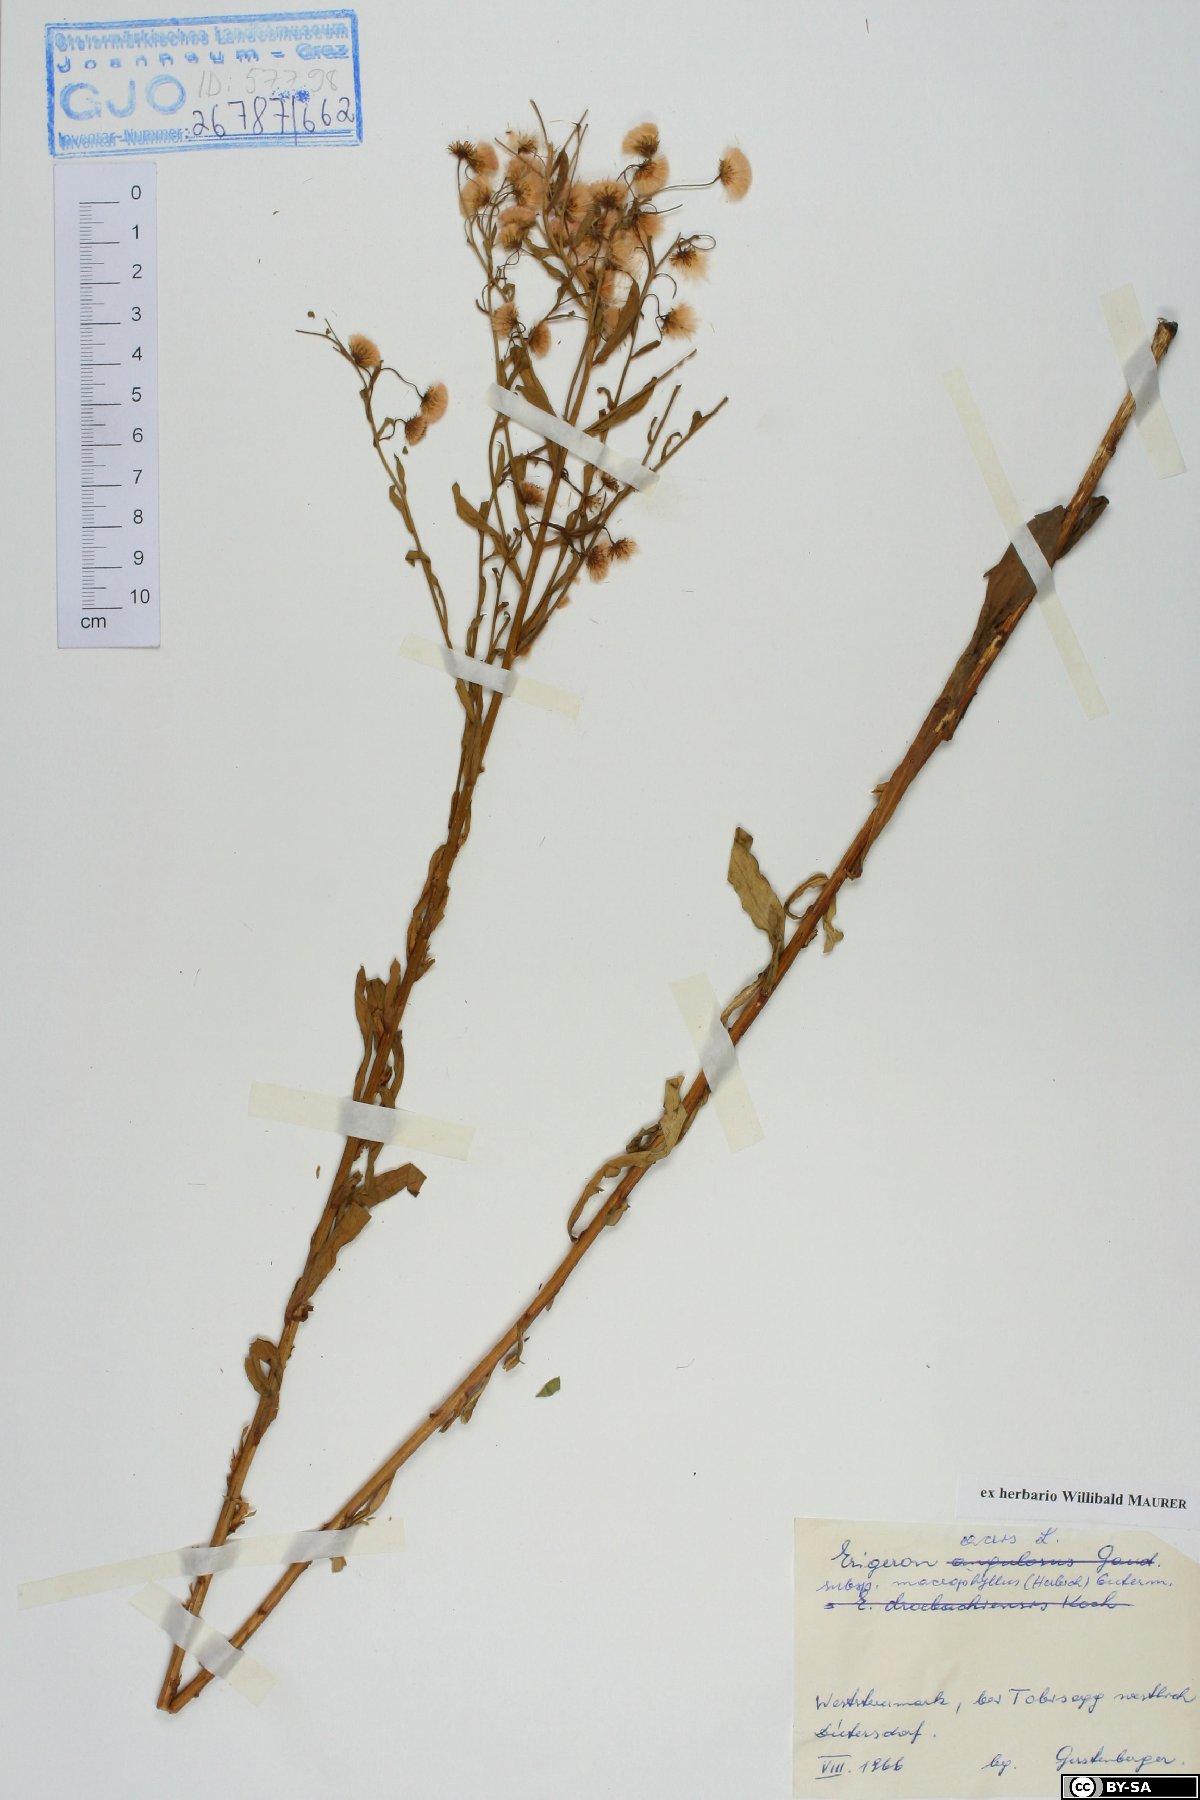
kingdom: Plantae
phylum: Tracheophyta
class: Magnoliopsida
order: Asterales
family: Asteraceae
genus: Erigeron
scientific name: Erigeron macrophyllus
